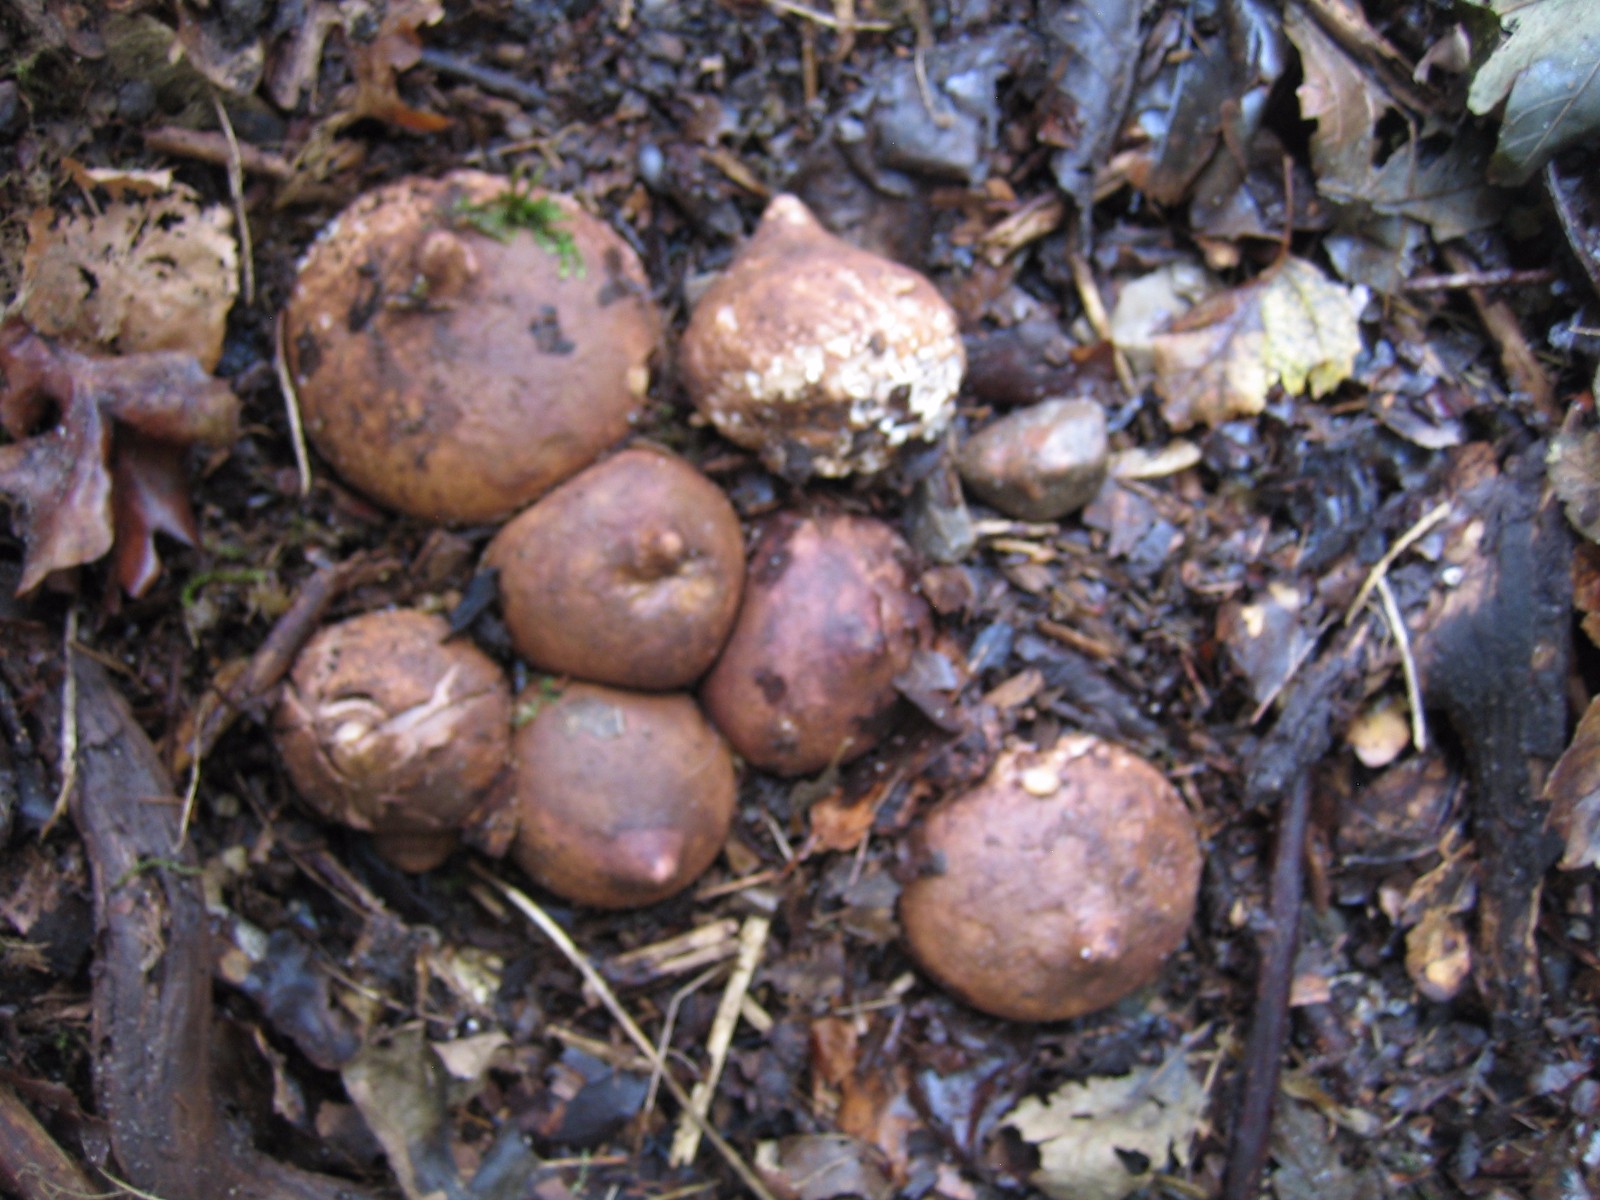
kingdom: Fungi
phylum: Basidiomycota
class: Agaricomycetes
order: Geastrales
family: Geastraceae
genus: Geastrum
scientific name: Geastrum michelianum
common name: kødet stjernebold
